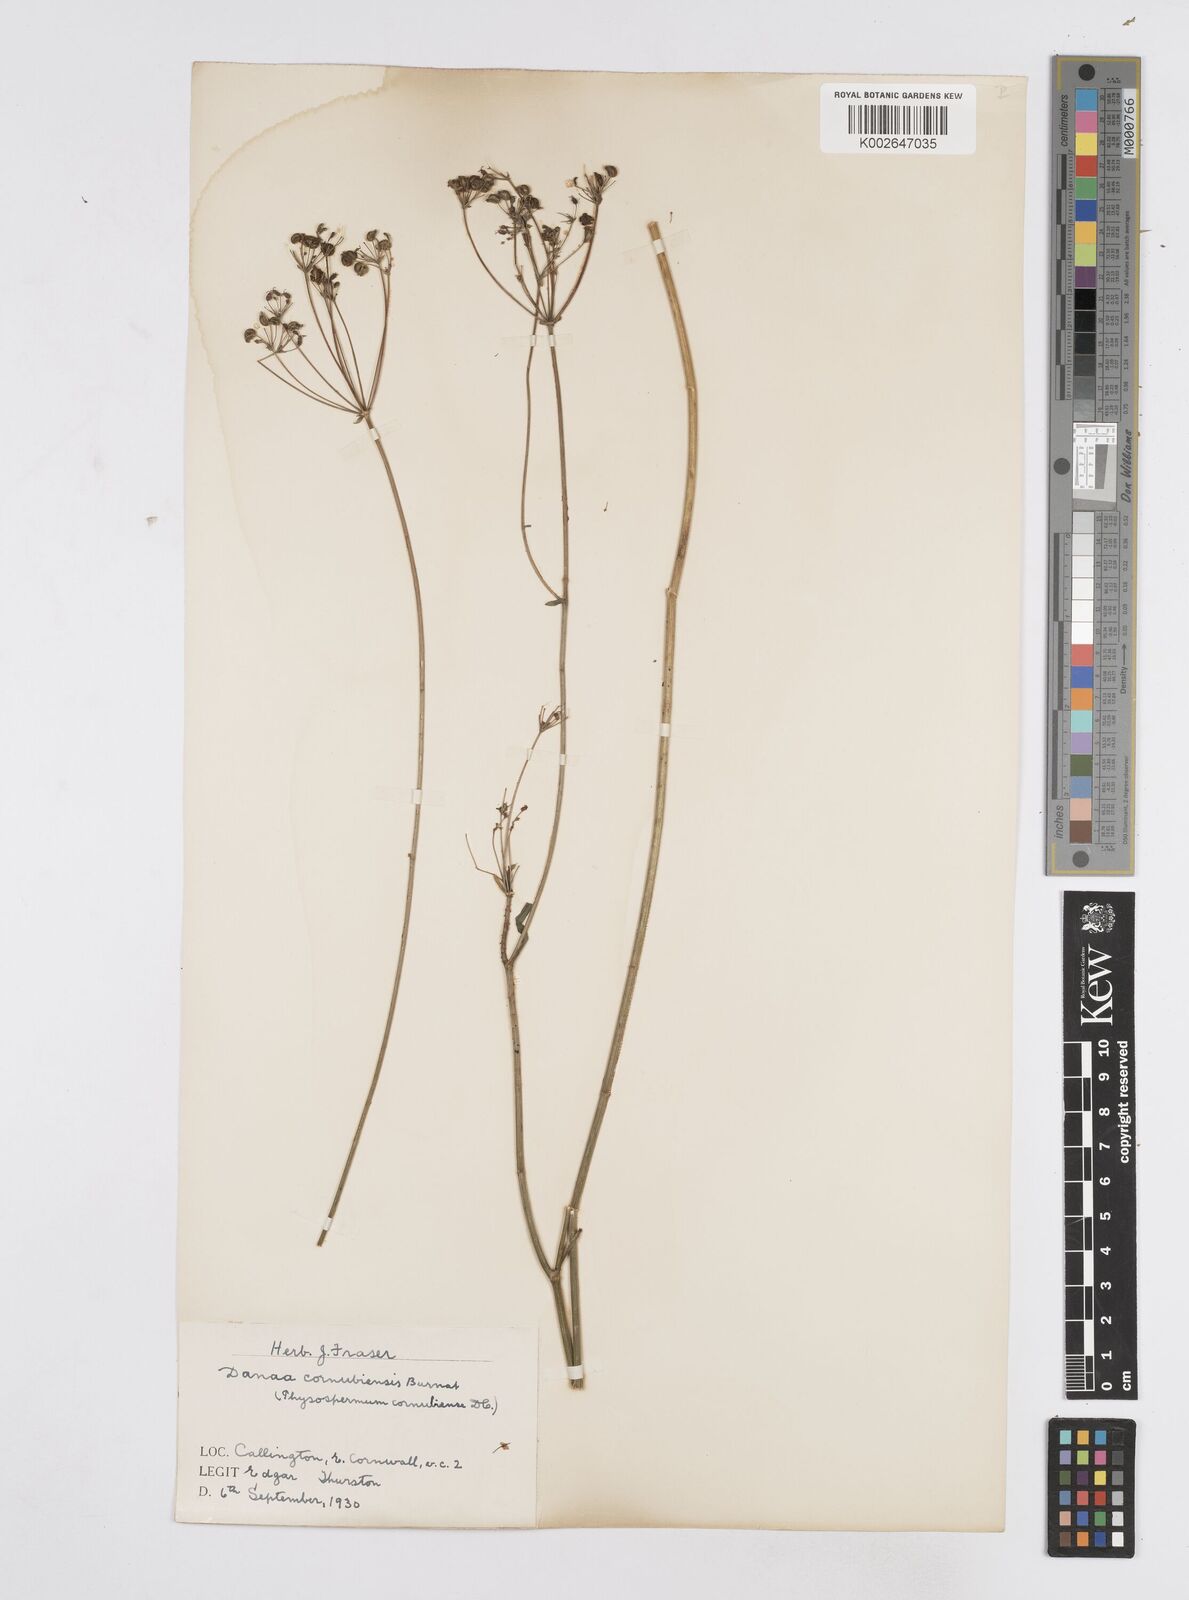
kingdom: Plantae
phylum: Tracheophyta
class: Magnoliopsida
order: Apiales
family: Apiaceae
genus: Physospermum
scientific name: Physospermum cornubiense
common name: Bladderseed
